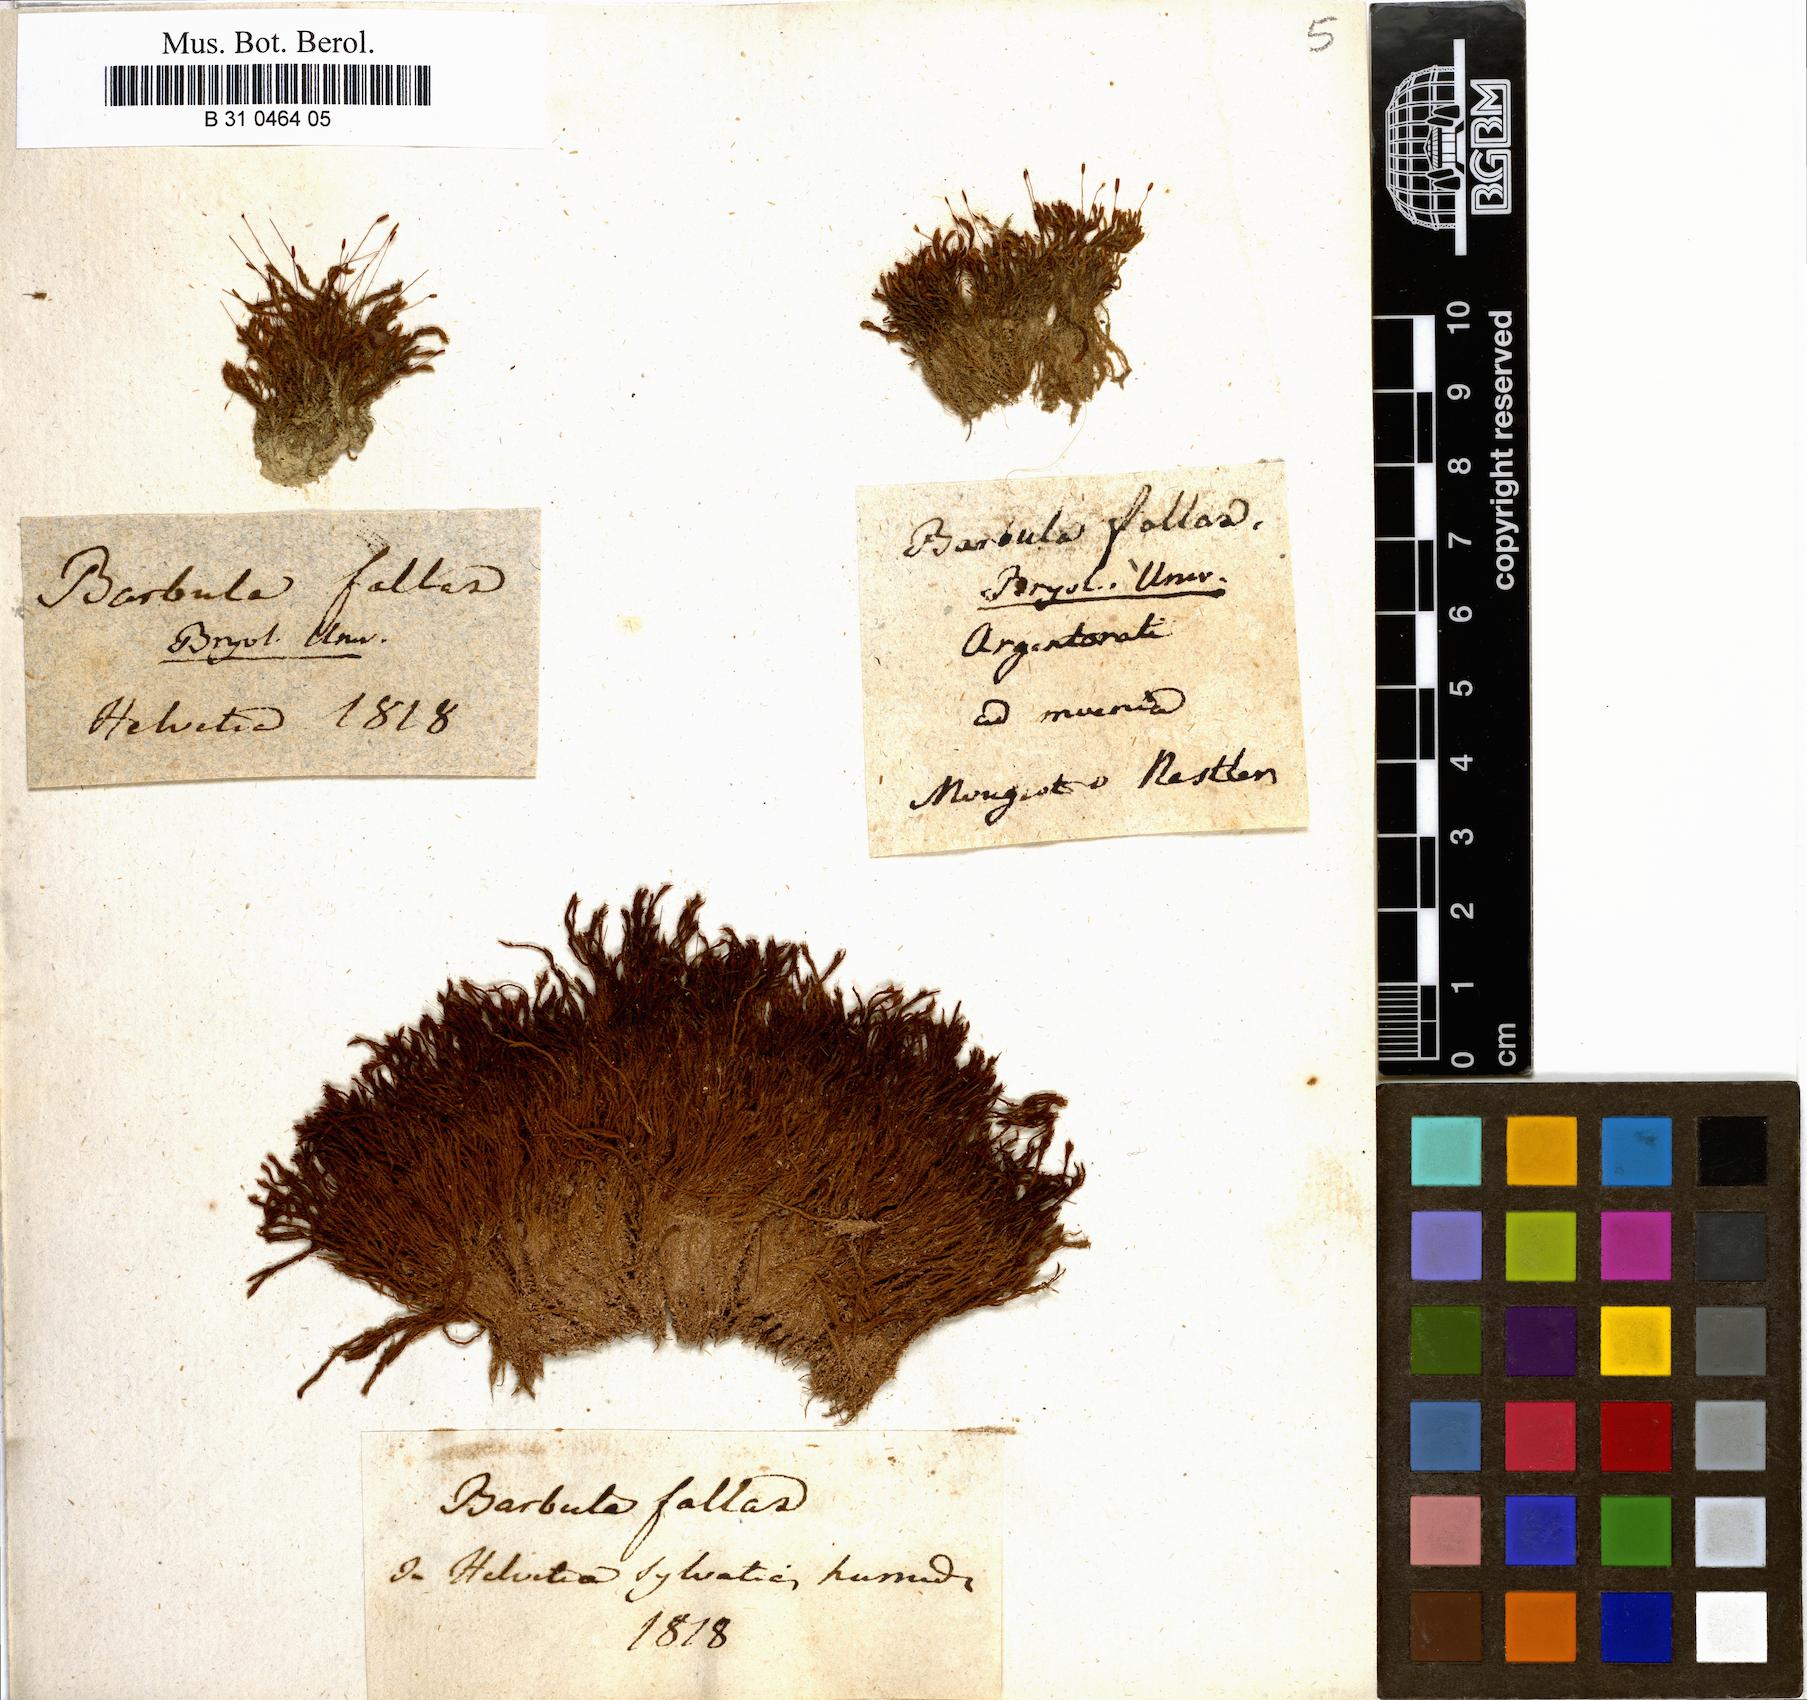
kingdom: Plantae
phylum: Bryophyta
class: Bryopsida
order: Pottiales
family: Pottiaceae
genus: Geheebia
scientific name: Geheebia fallax
